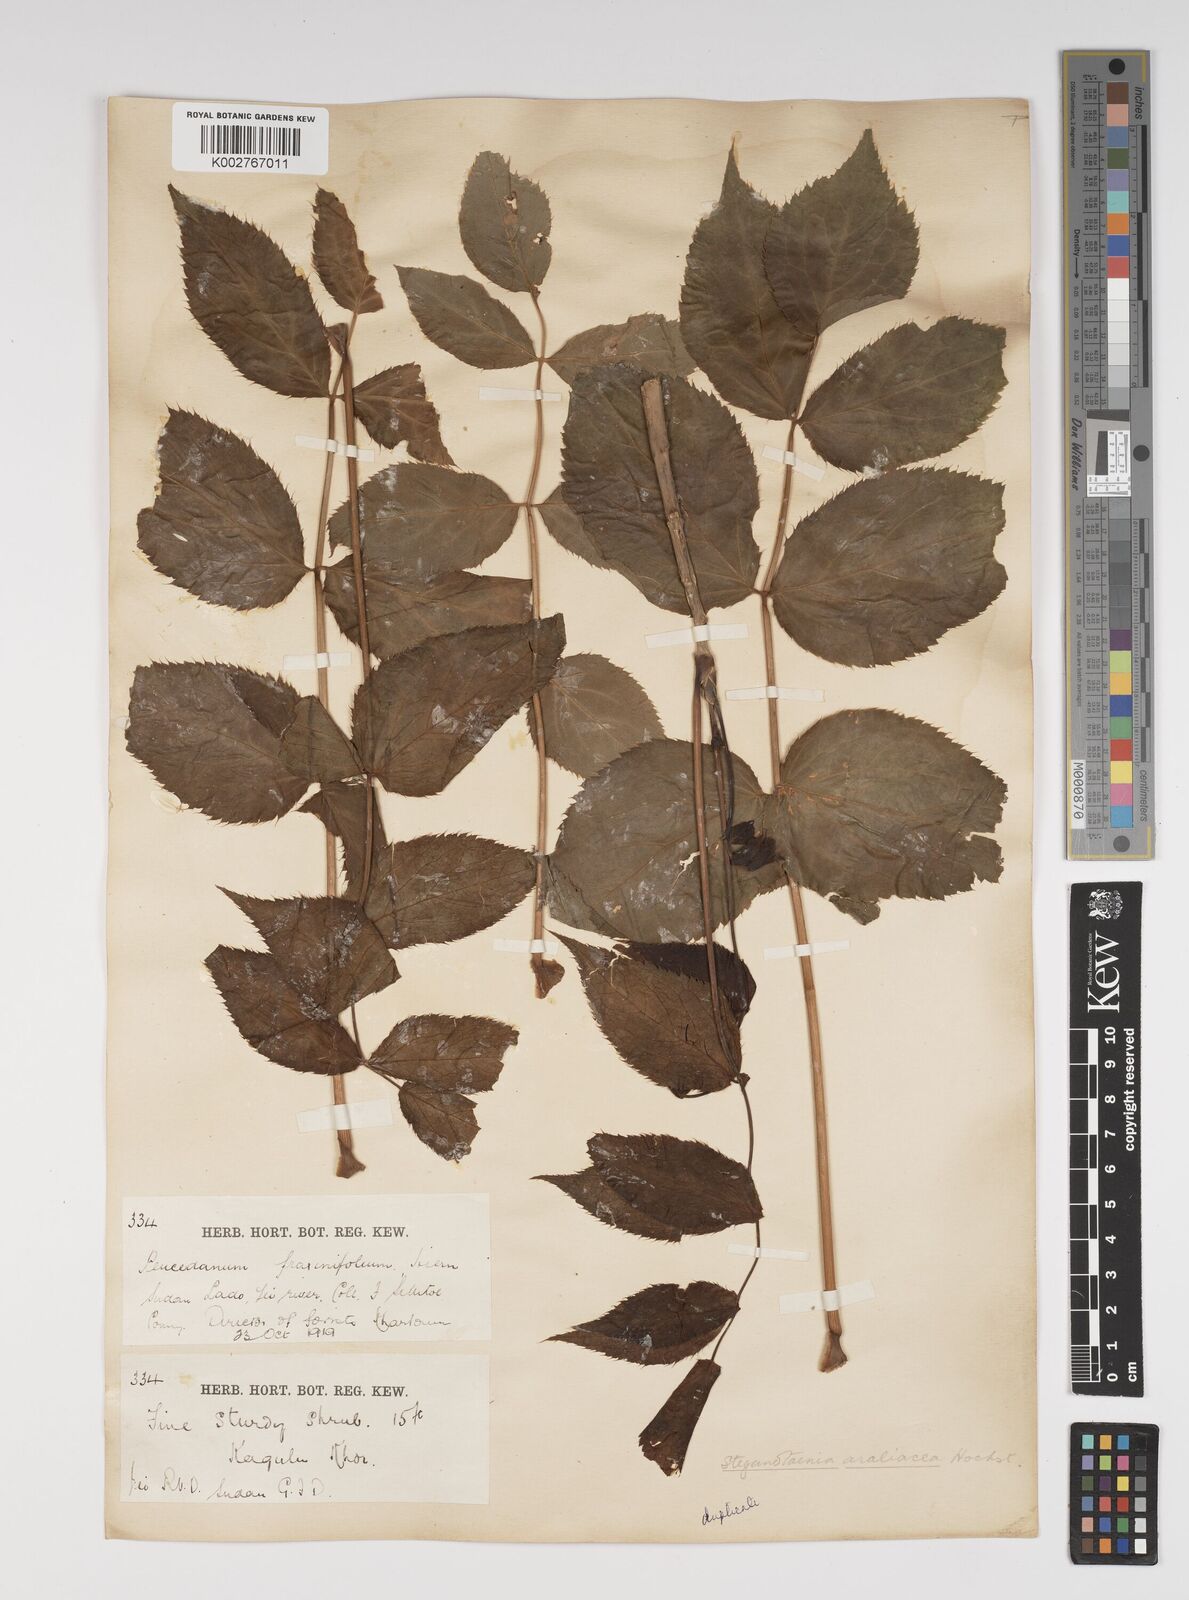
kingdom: Plantae
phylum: Tracheophyta
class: Magnoliopsida
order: Apiales
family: Apiaceae
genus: Steganotaenia
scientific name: Steganotaenia araliacea
